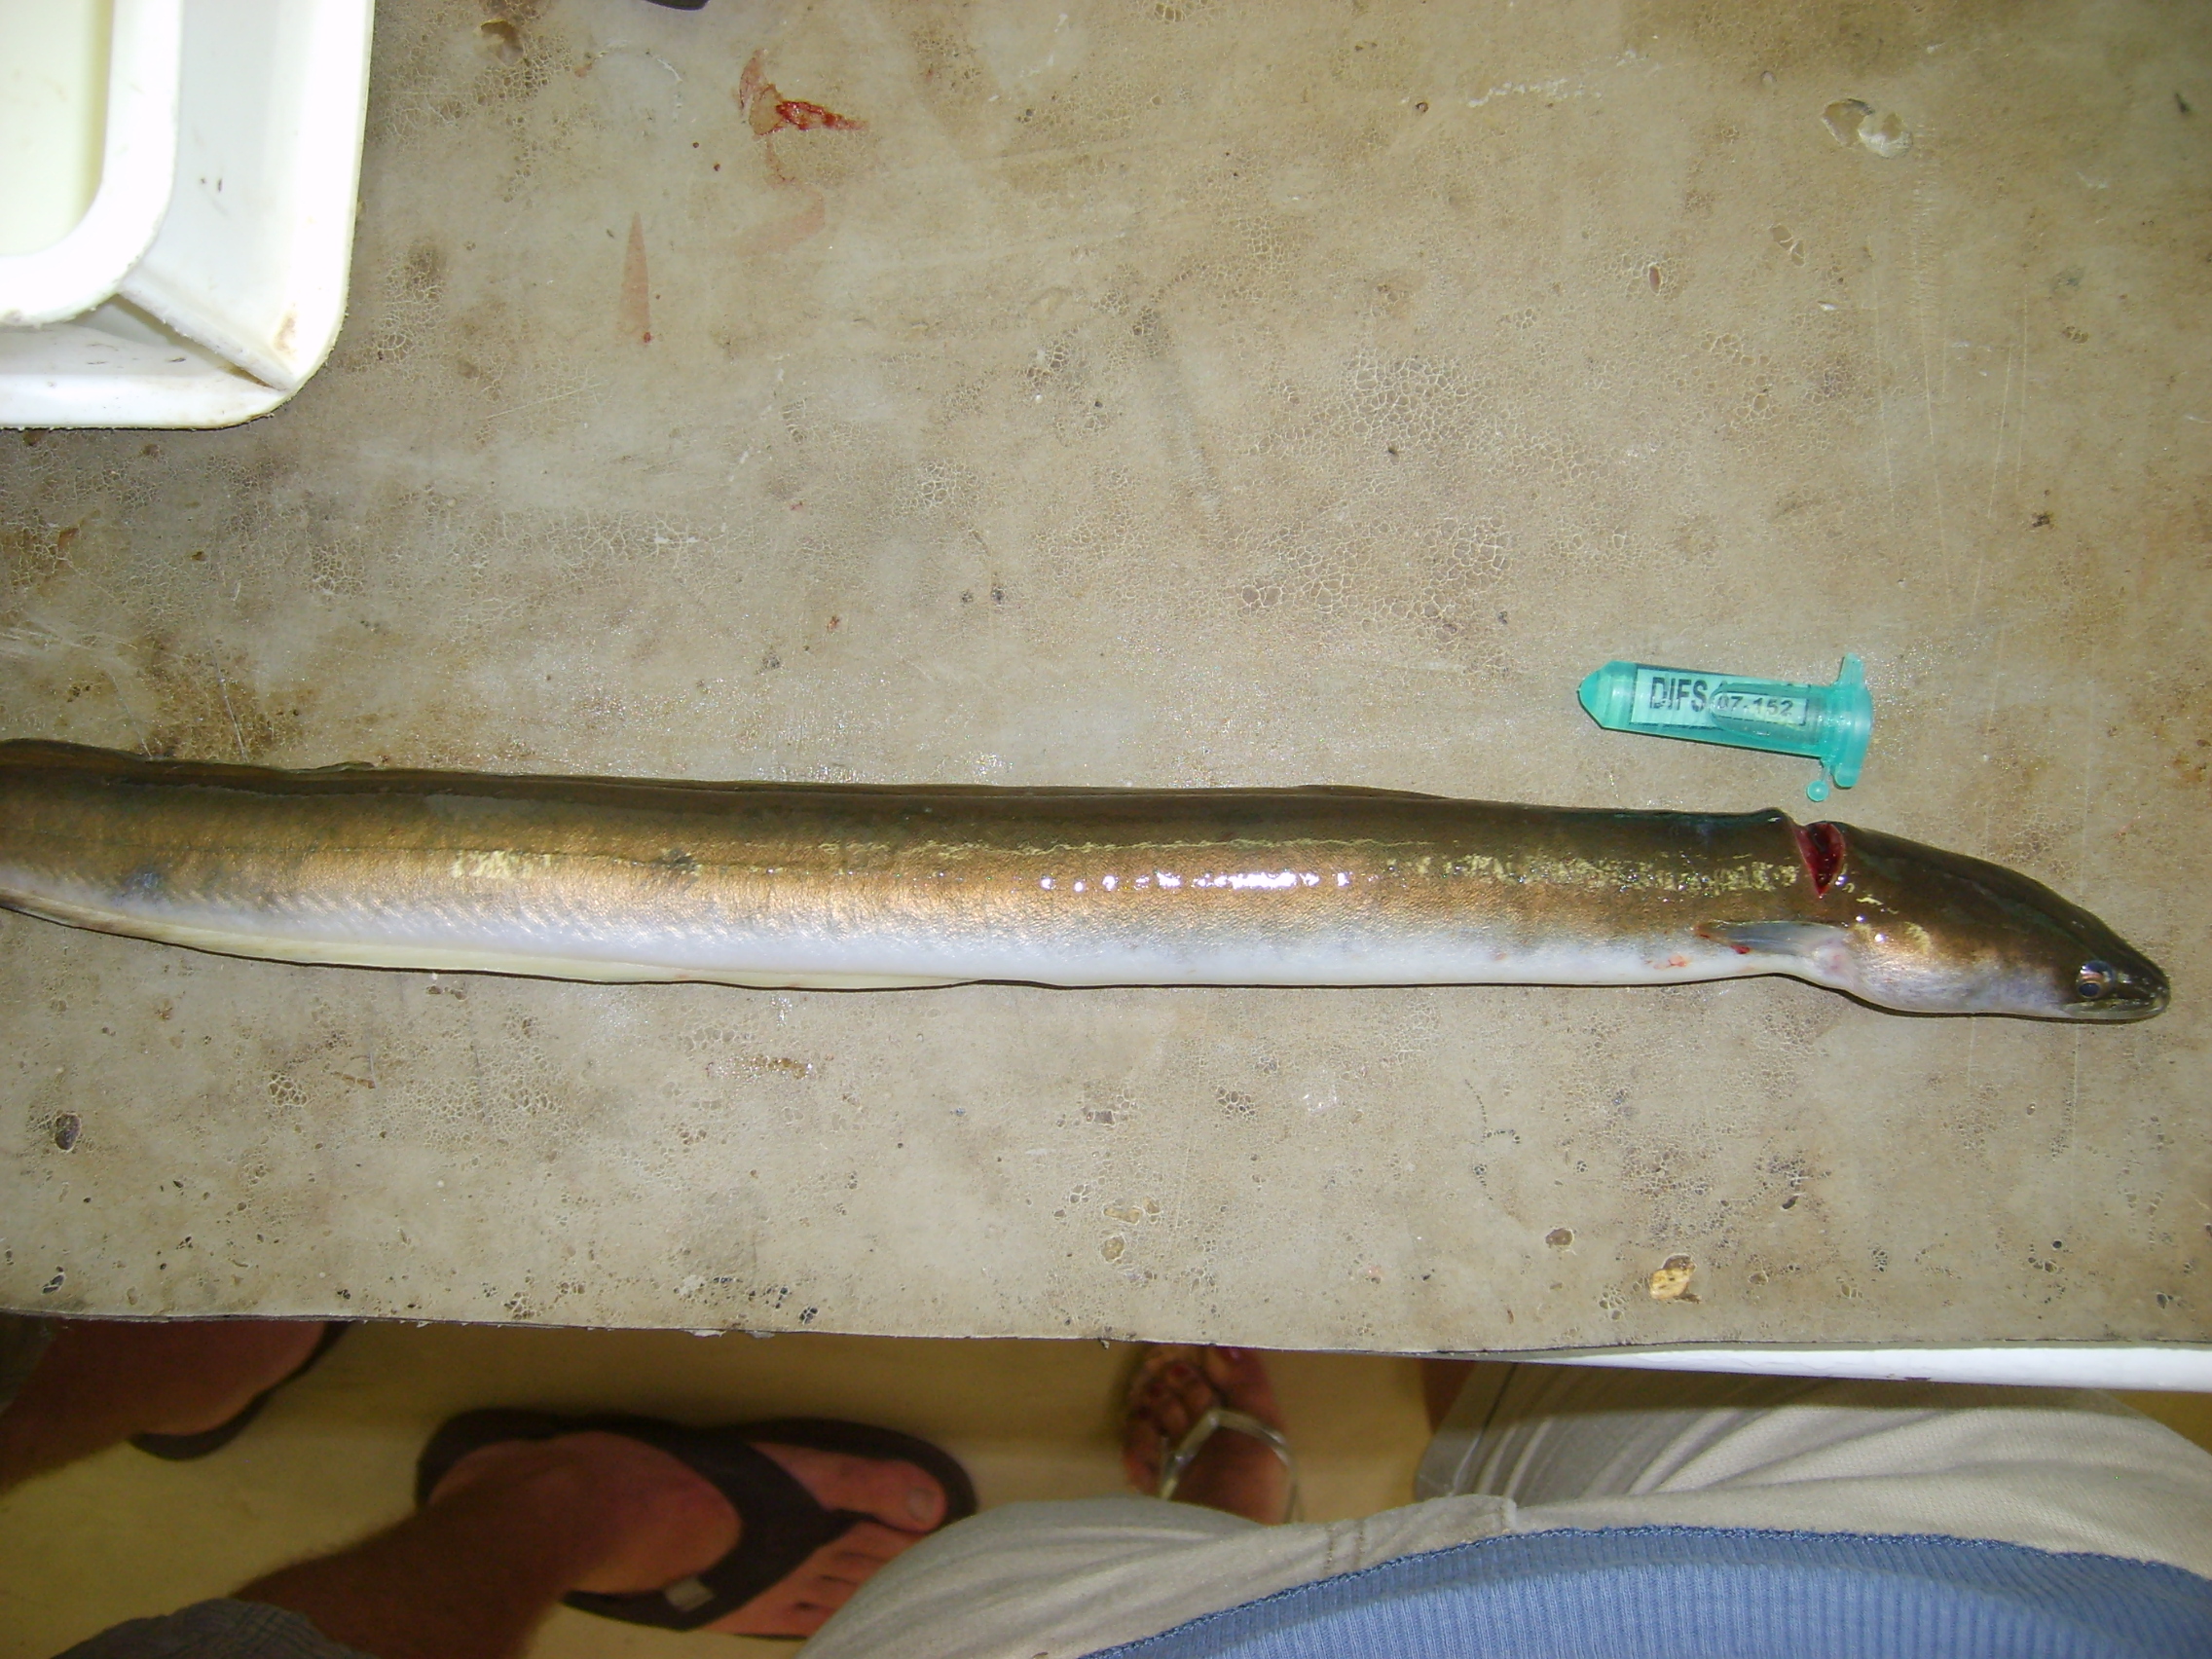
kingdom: Animalia
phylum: Chordata
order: Anguilliformes
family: Anguillidae
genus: Anguilla
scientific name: Anguilla mossambica
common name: African longfin eel
